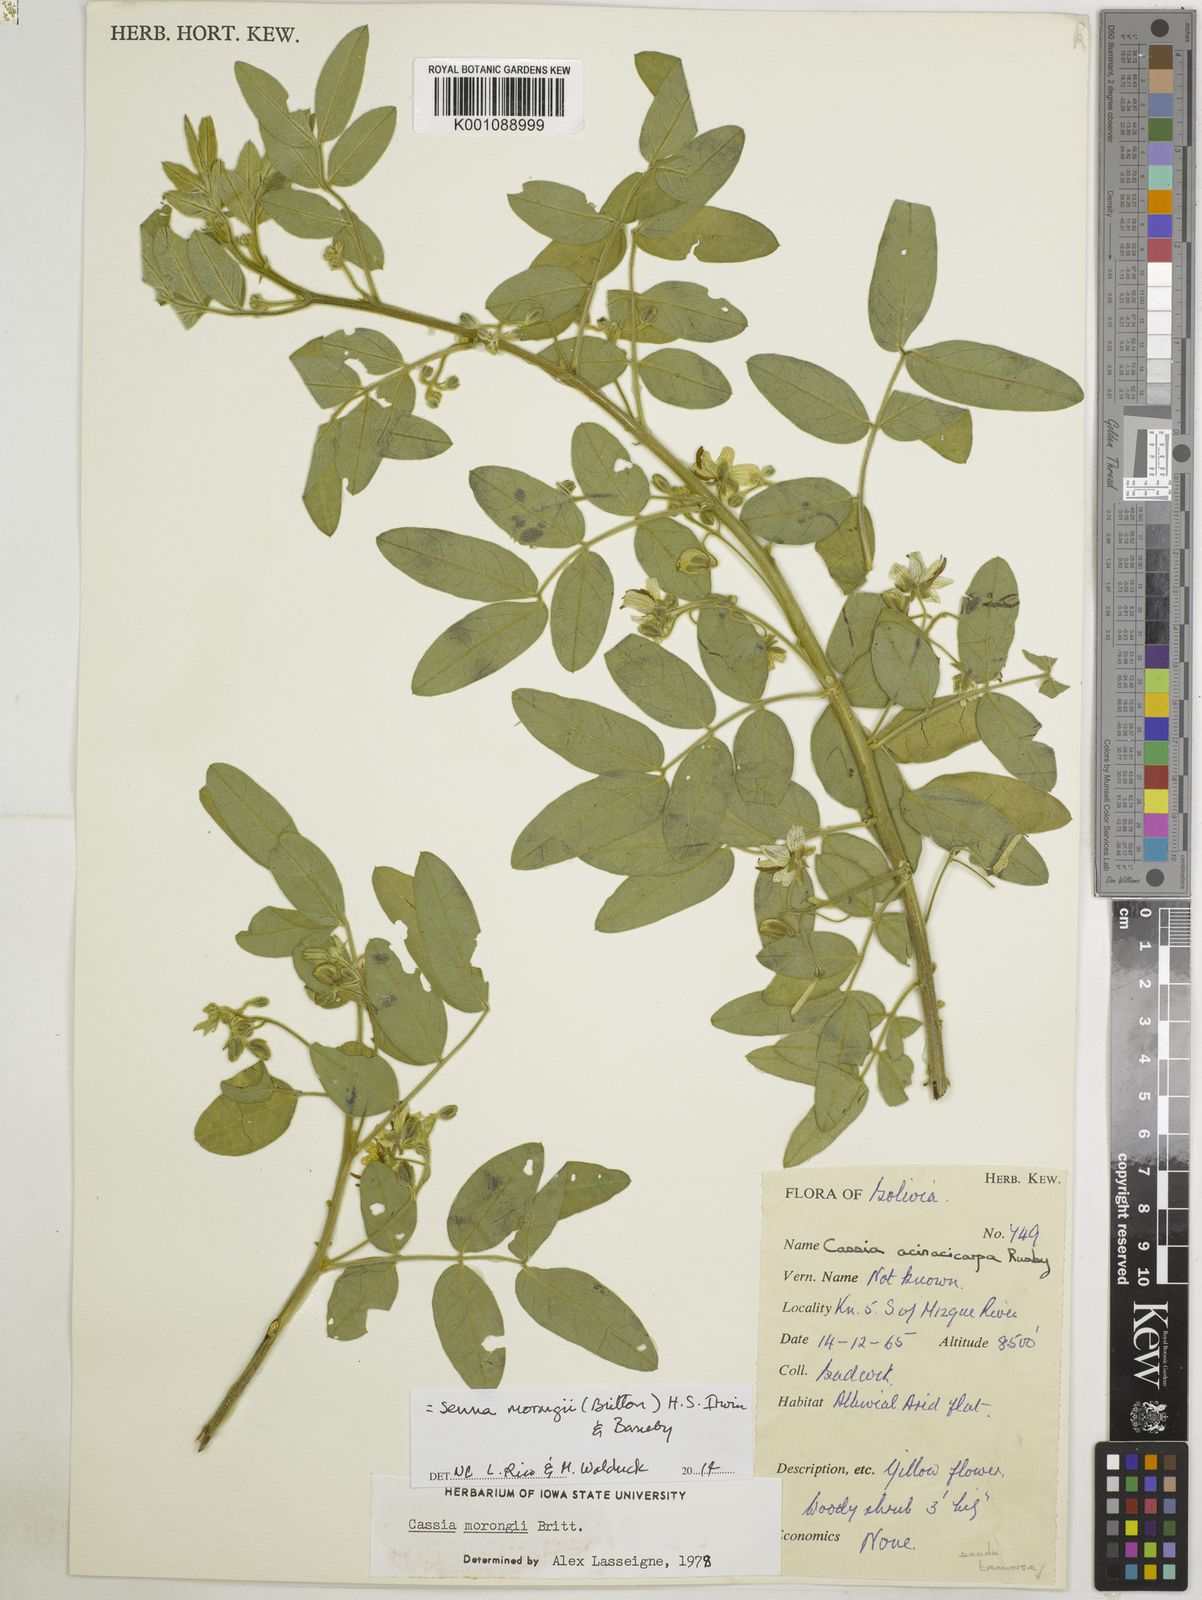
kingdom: Plantae
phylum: Tracheophyta
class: Magnoliopsida
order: Fabales
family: Fabaceae
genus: Senna
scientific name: Senna morongii
